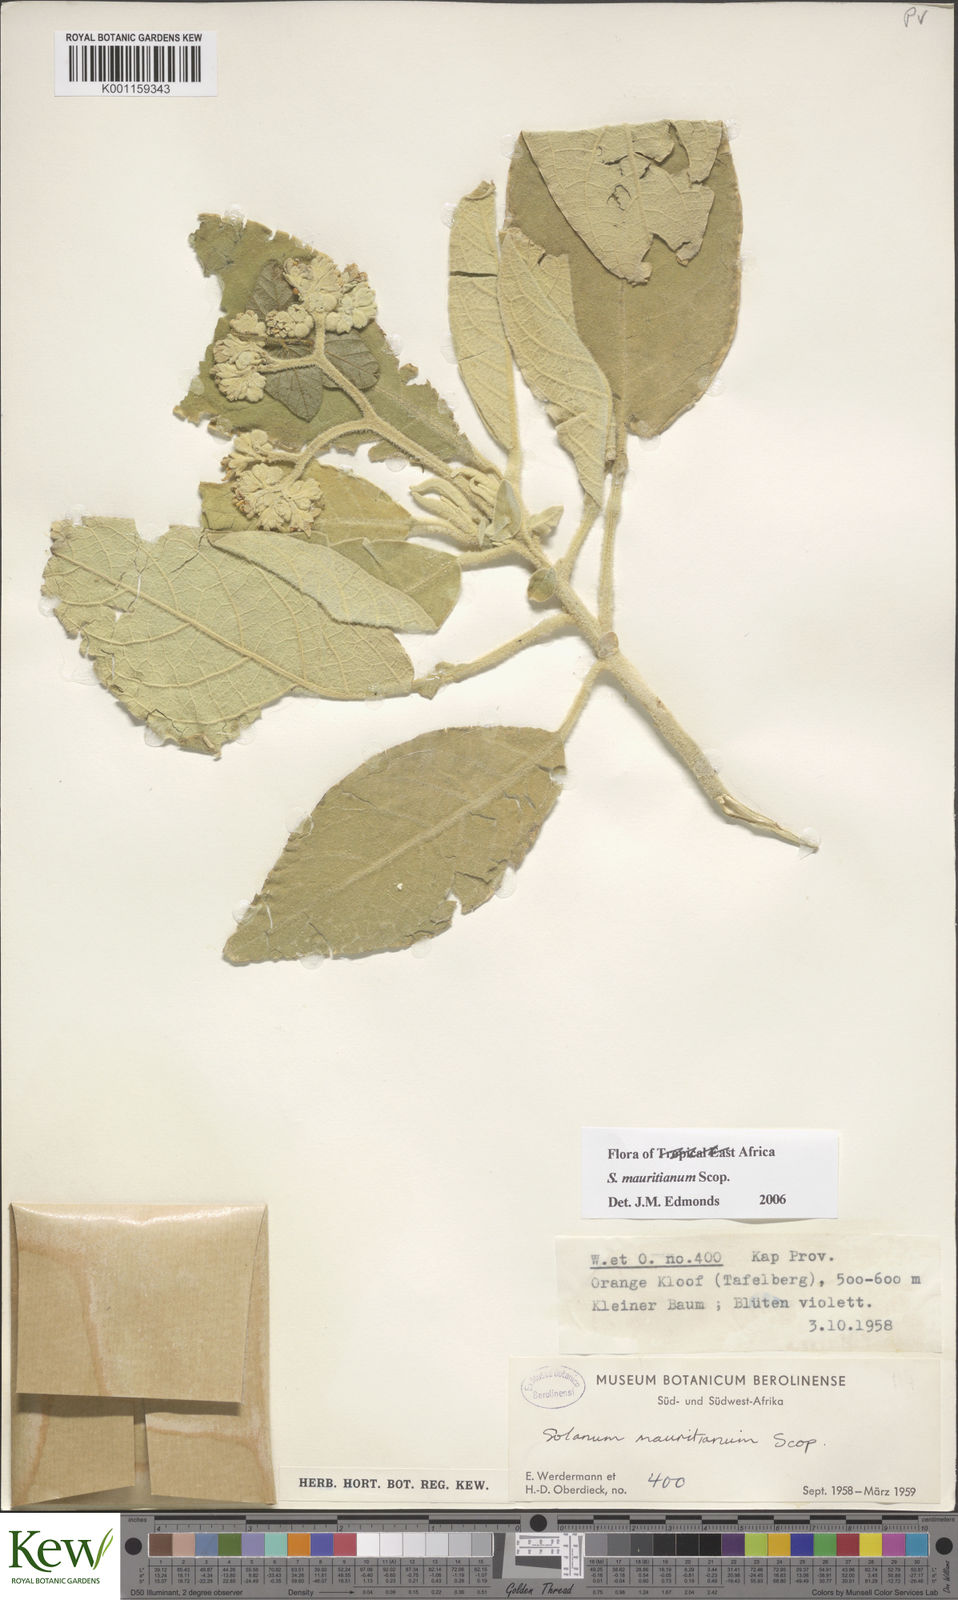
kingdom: Plantae
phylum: Tracheophyta
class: Magnoliopsida
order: Solanales
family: Solanaceae
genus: Solanum
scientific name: Solanum mauritianum
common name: Earleaf nightshade
